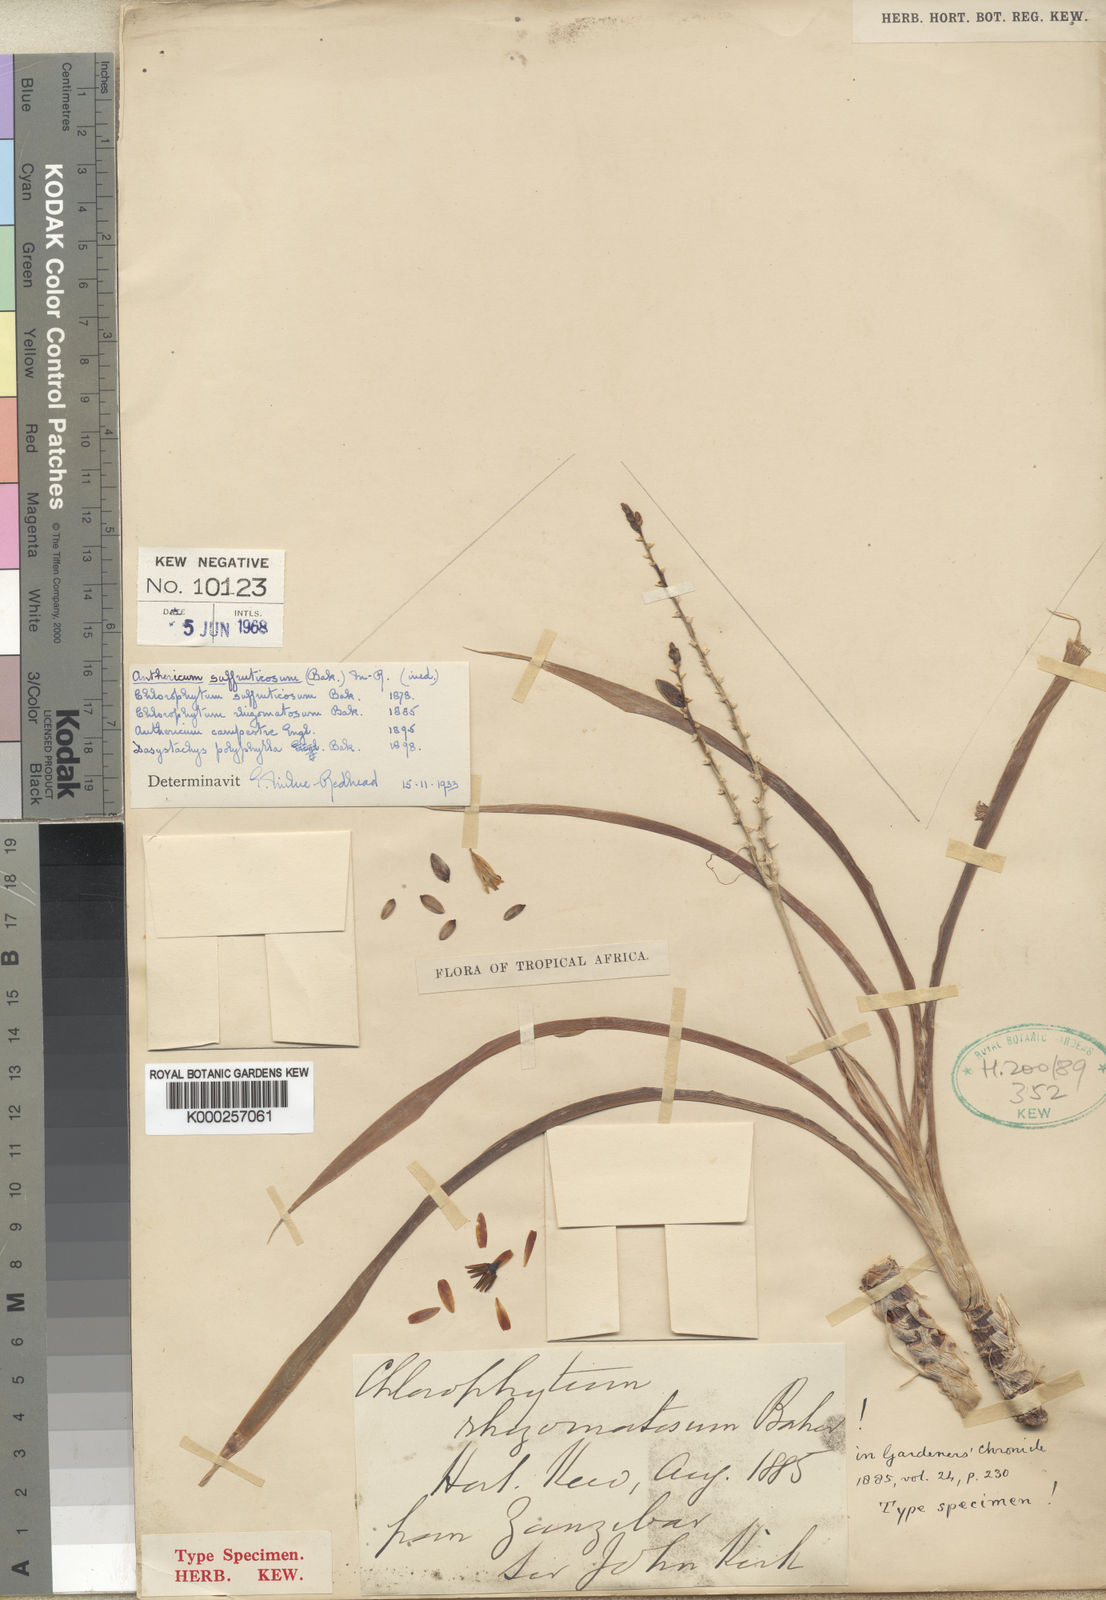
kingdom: Plantae
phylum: Tracheophyta
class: Liliopsida
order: Asparagales
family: Asparagaceae
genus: Chlorophytum
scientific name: Chlorophytum suffruticosum
